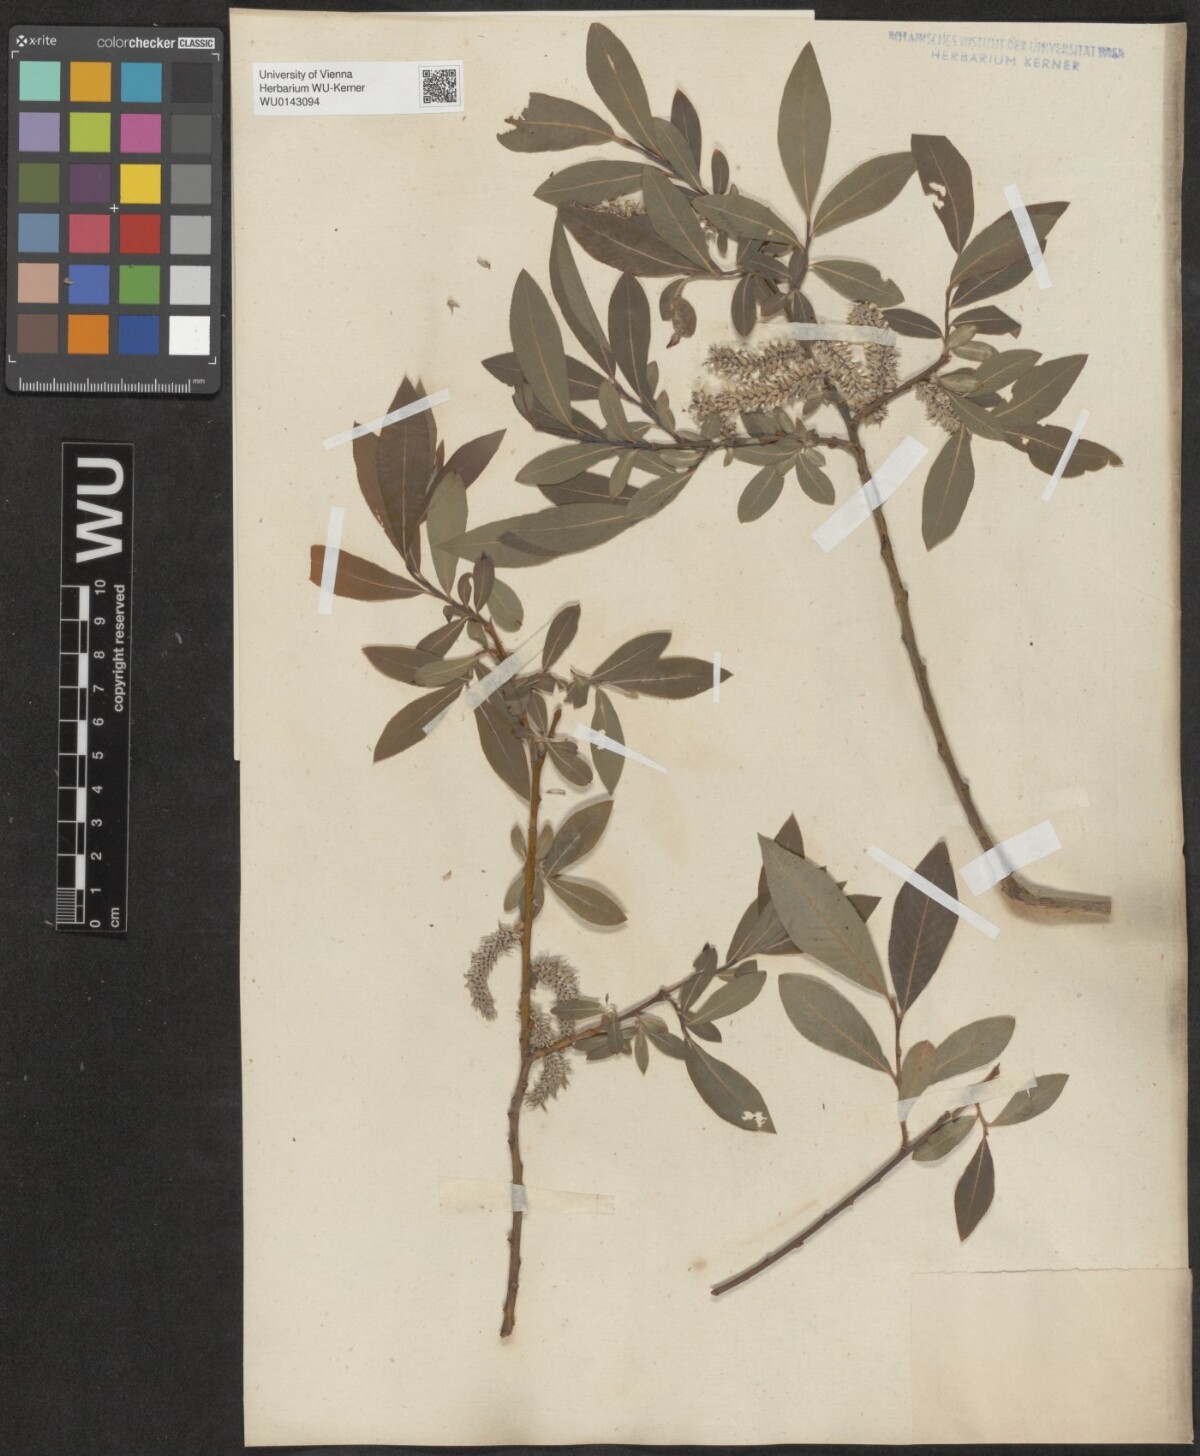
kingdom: Plantae
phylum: Tracheophyta
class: Magnoliopsida
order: Malpighiales
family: Salicaceae
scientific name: Salicaceae
